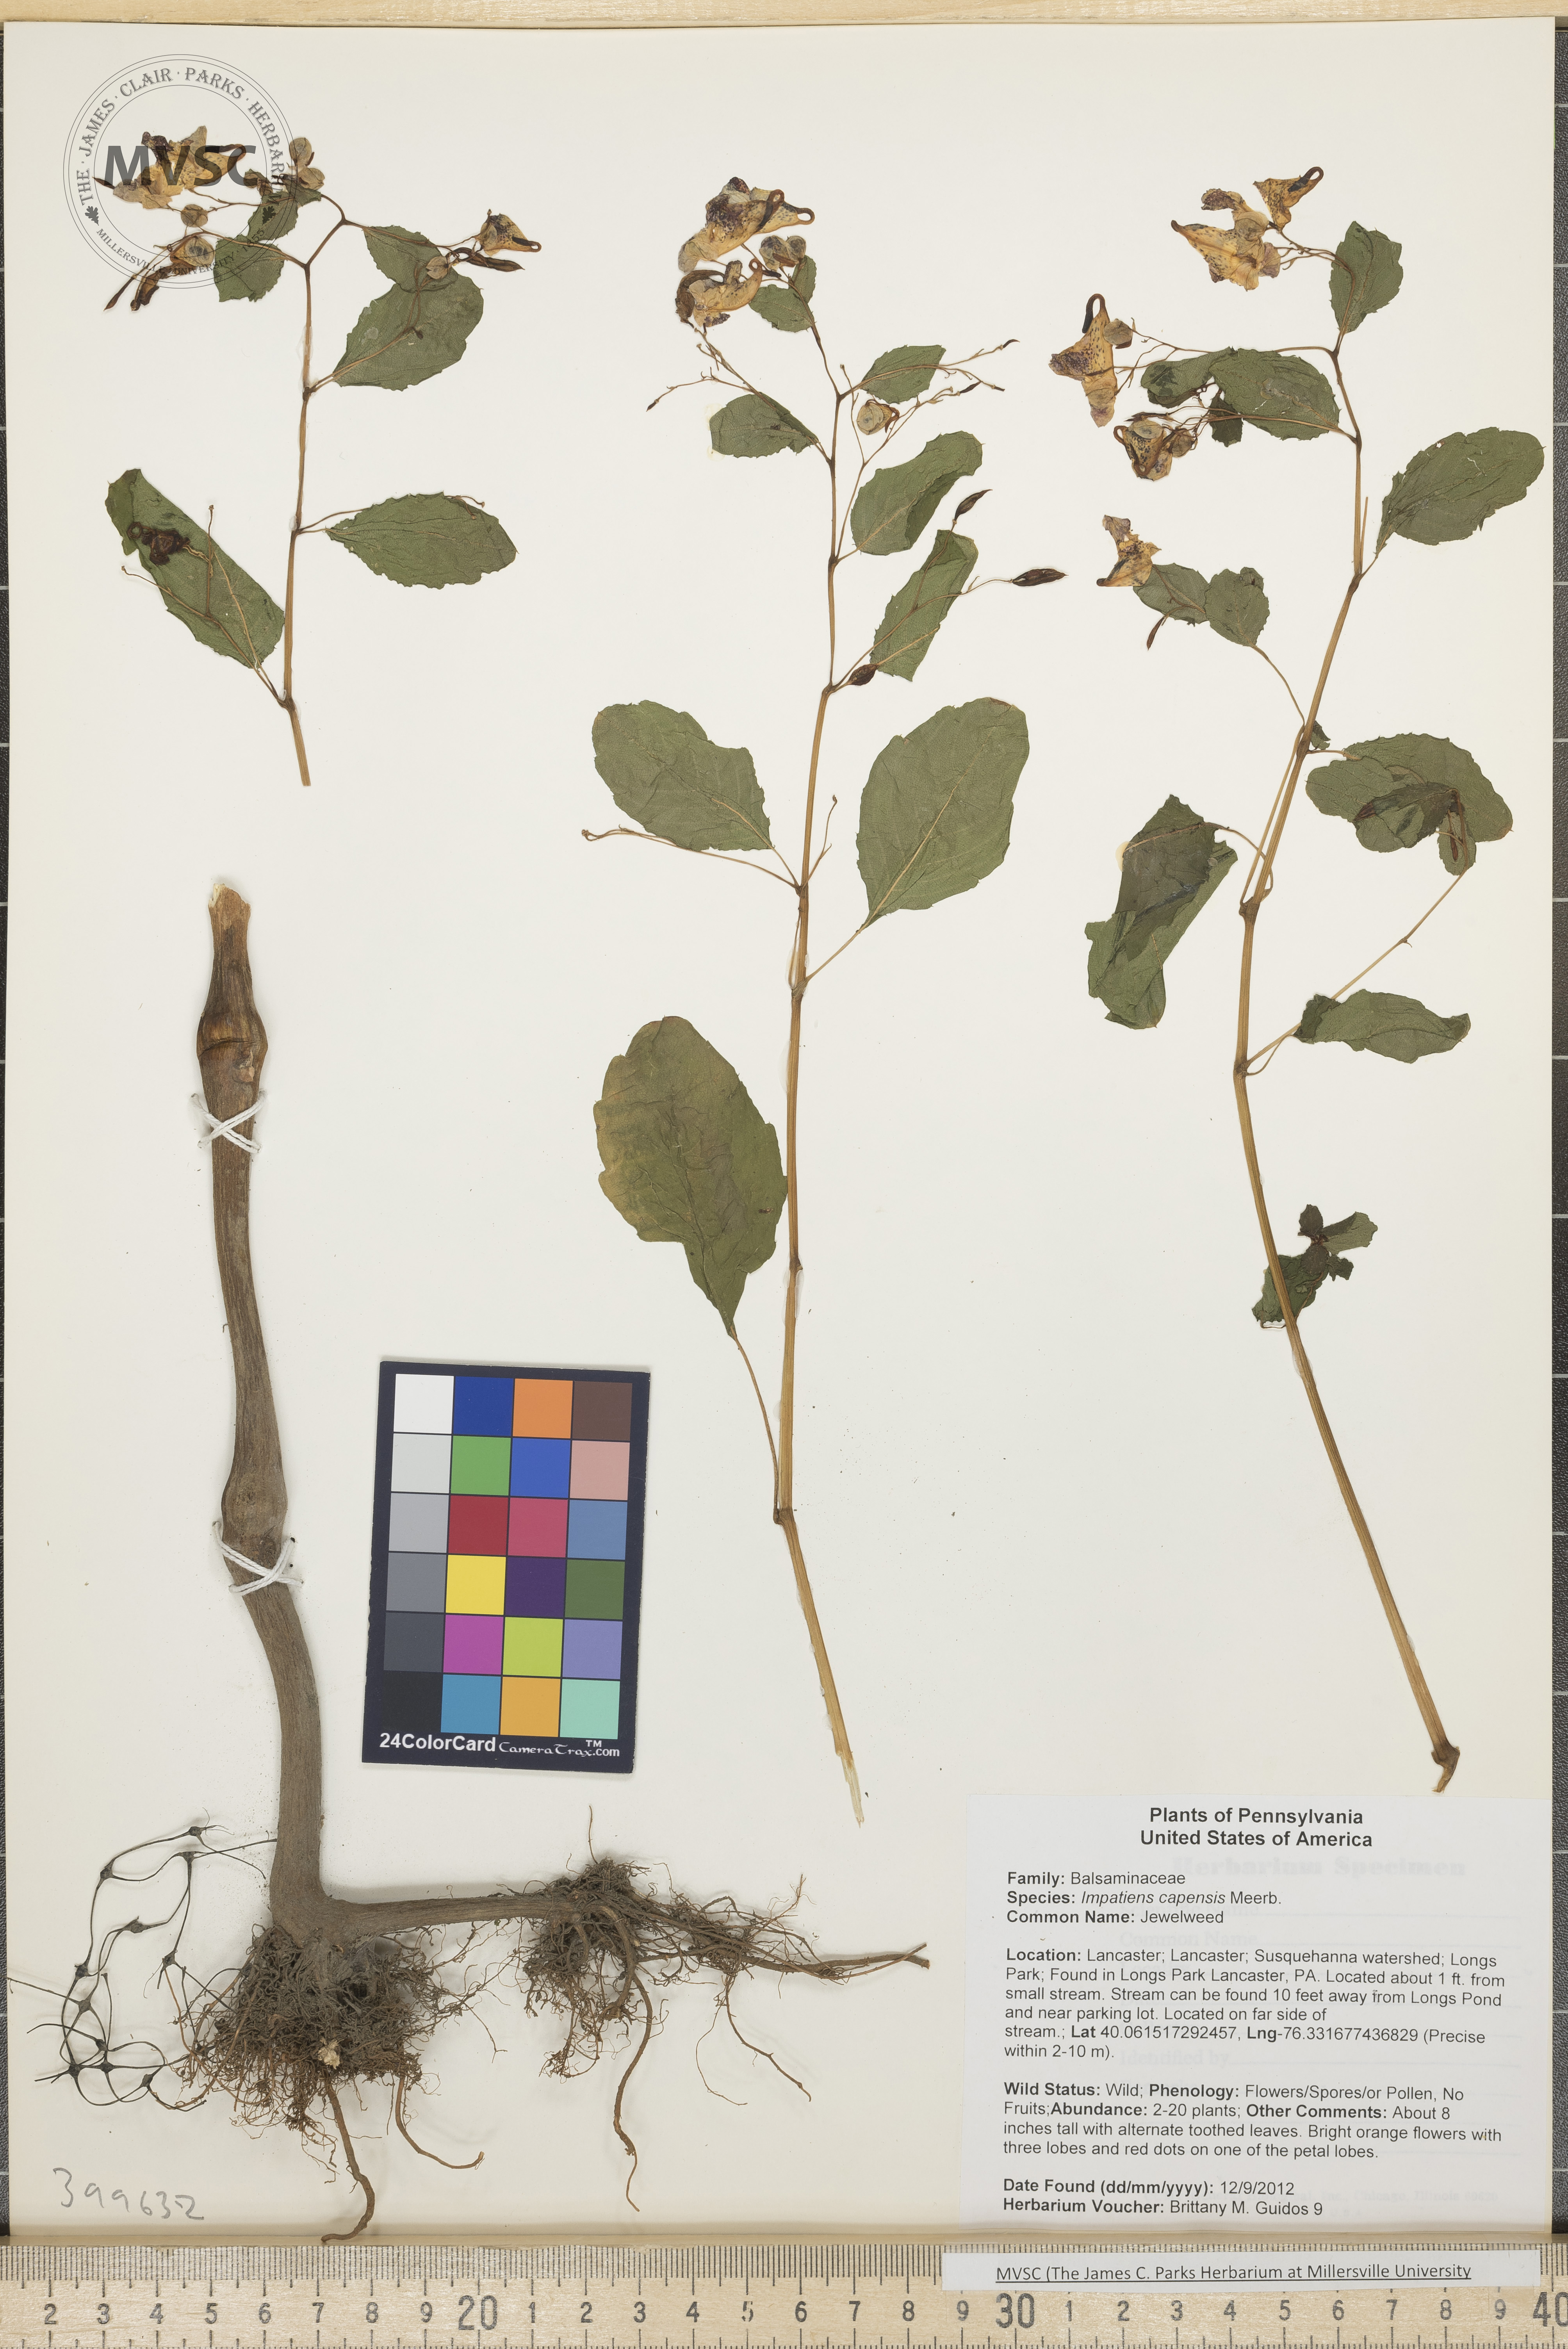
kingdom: Plantae
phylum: Tracheophyta
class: Magnoliopsida
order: Ericales
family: Balsaminaceae
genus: Impatiens
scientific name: Impatiens capensis
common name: Jewelweed
